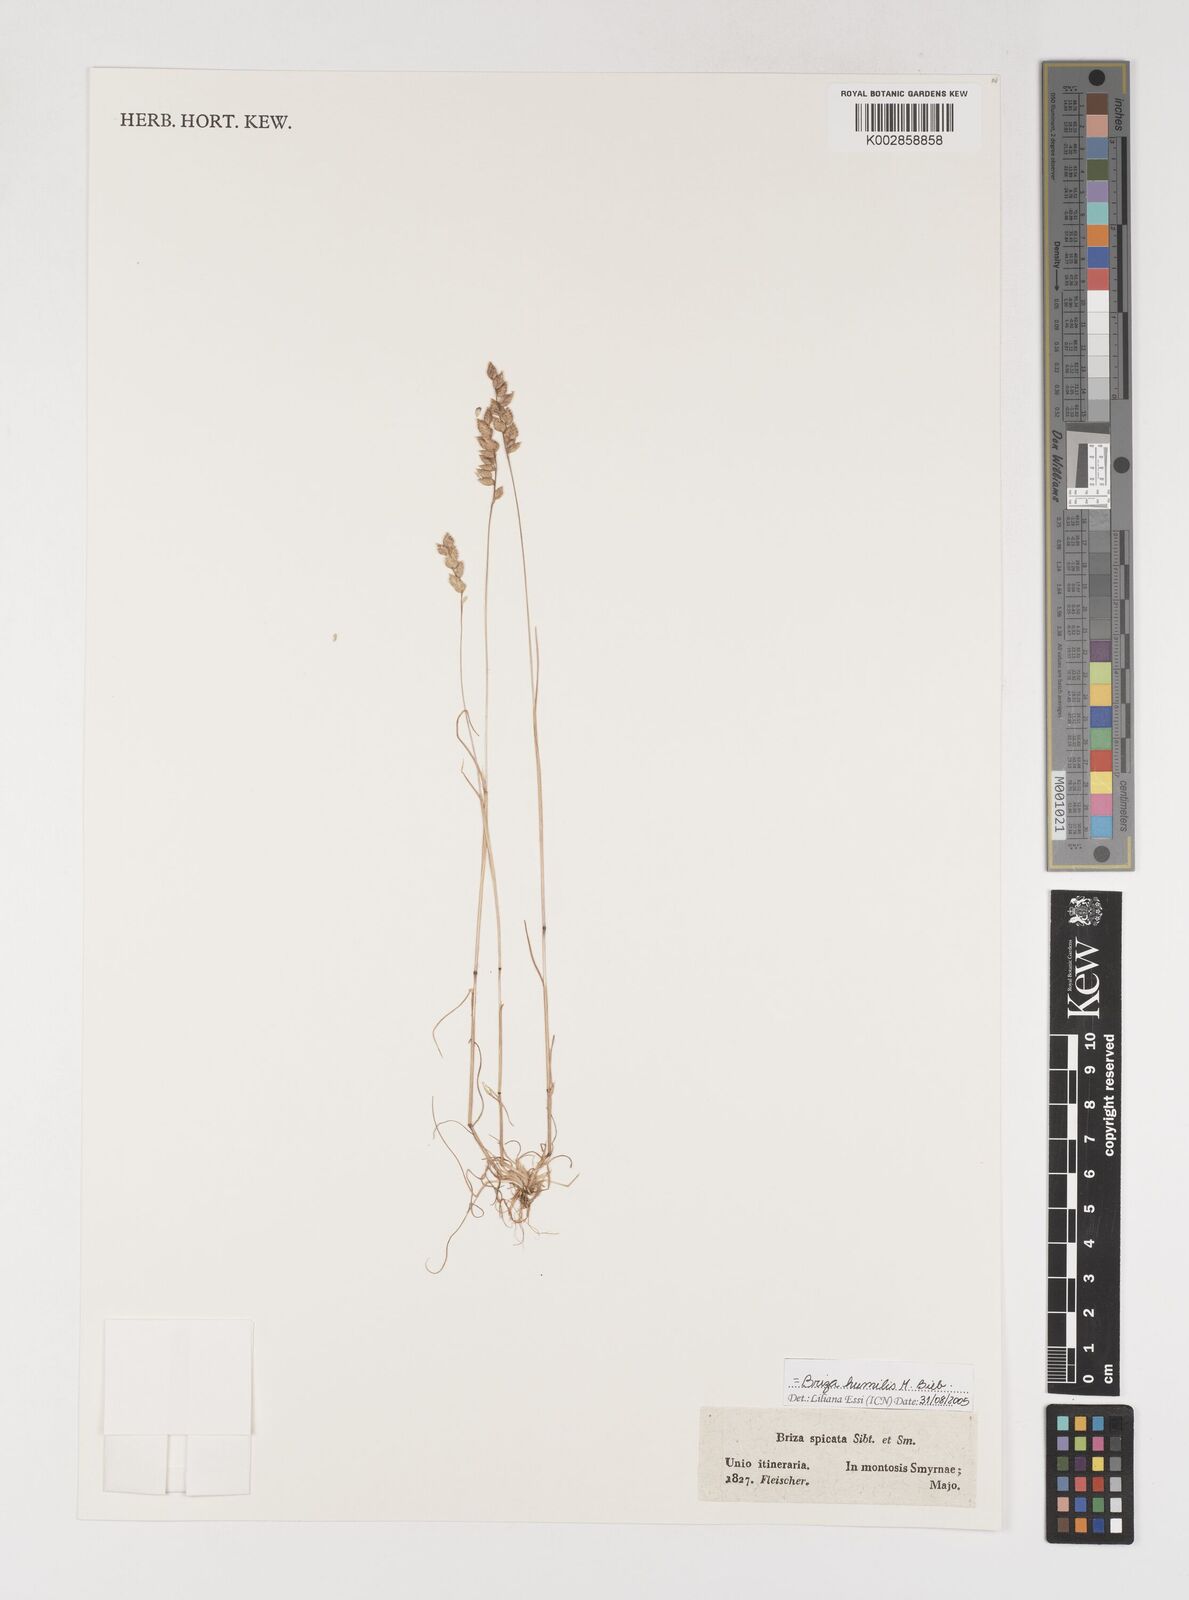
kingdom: Plantae
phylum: Tracheophyta
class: Liliopsida
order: Poales
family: Poaceae
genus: Briza
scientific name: Briza humilis
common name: Spiked quaking grass
